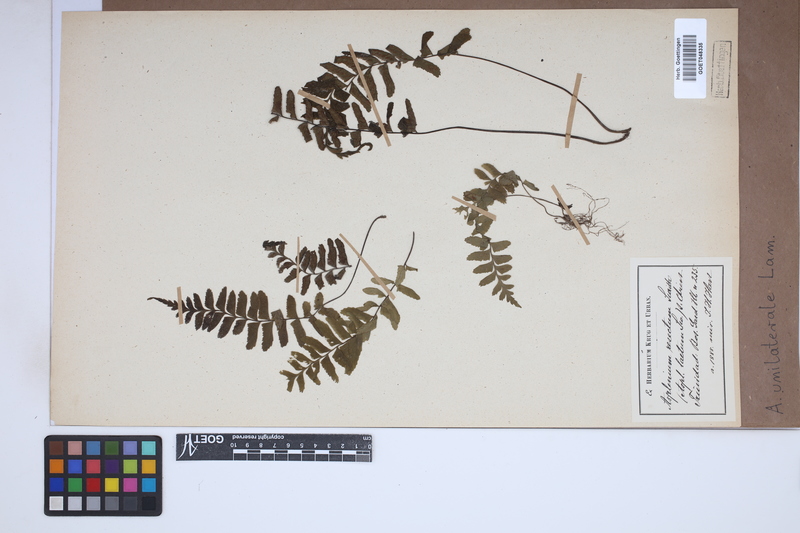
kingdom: Plantae
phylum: Tracheophyta
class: Polypodiopsida
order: Polypodiales
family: Aspleniaceae
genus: Hymenasplenium
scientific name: Hymenasplenium unilaterale
